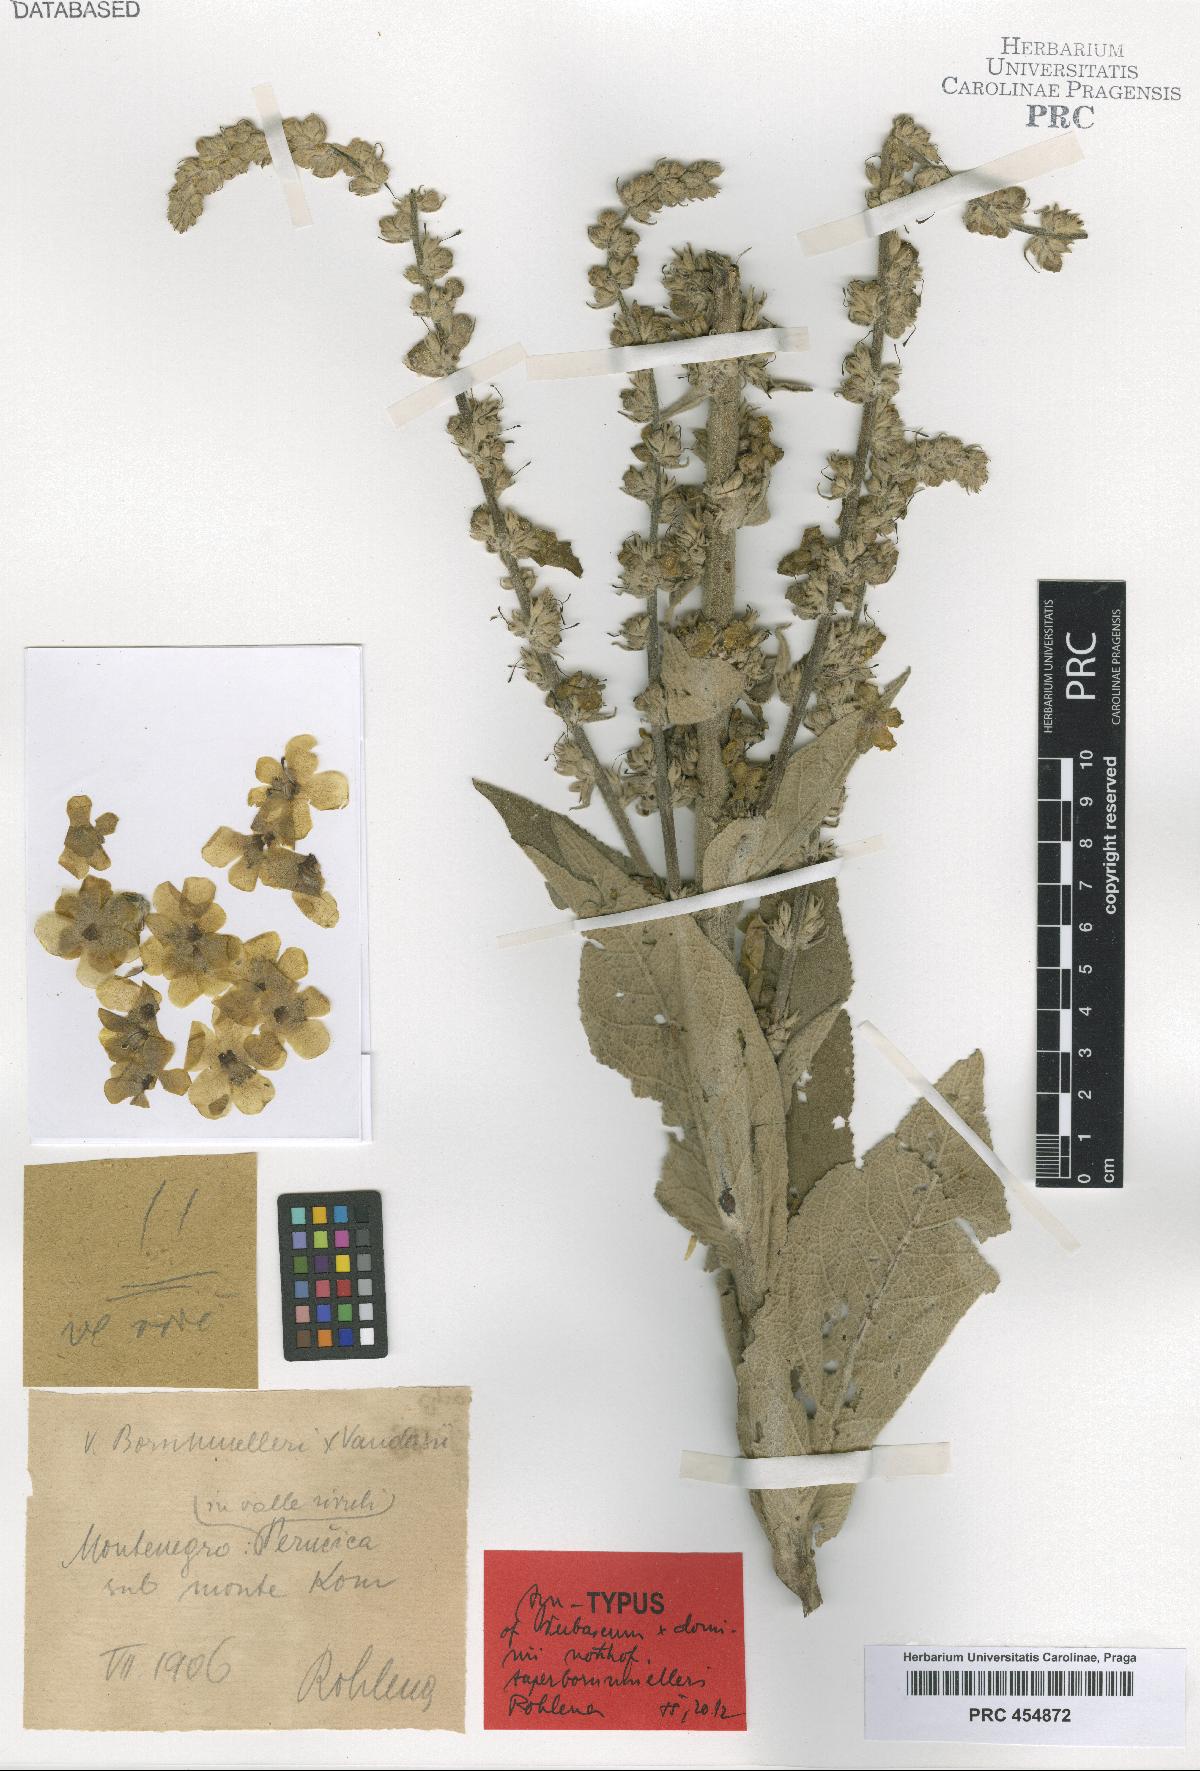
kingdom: Plantae
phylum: Tracheophyta
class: Magnoliopsida
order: Lamiales
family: Scrophulariaceae
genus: Verbascum
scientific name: Verbascum dominii
